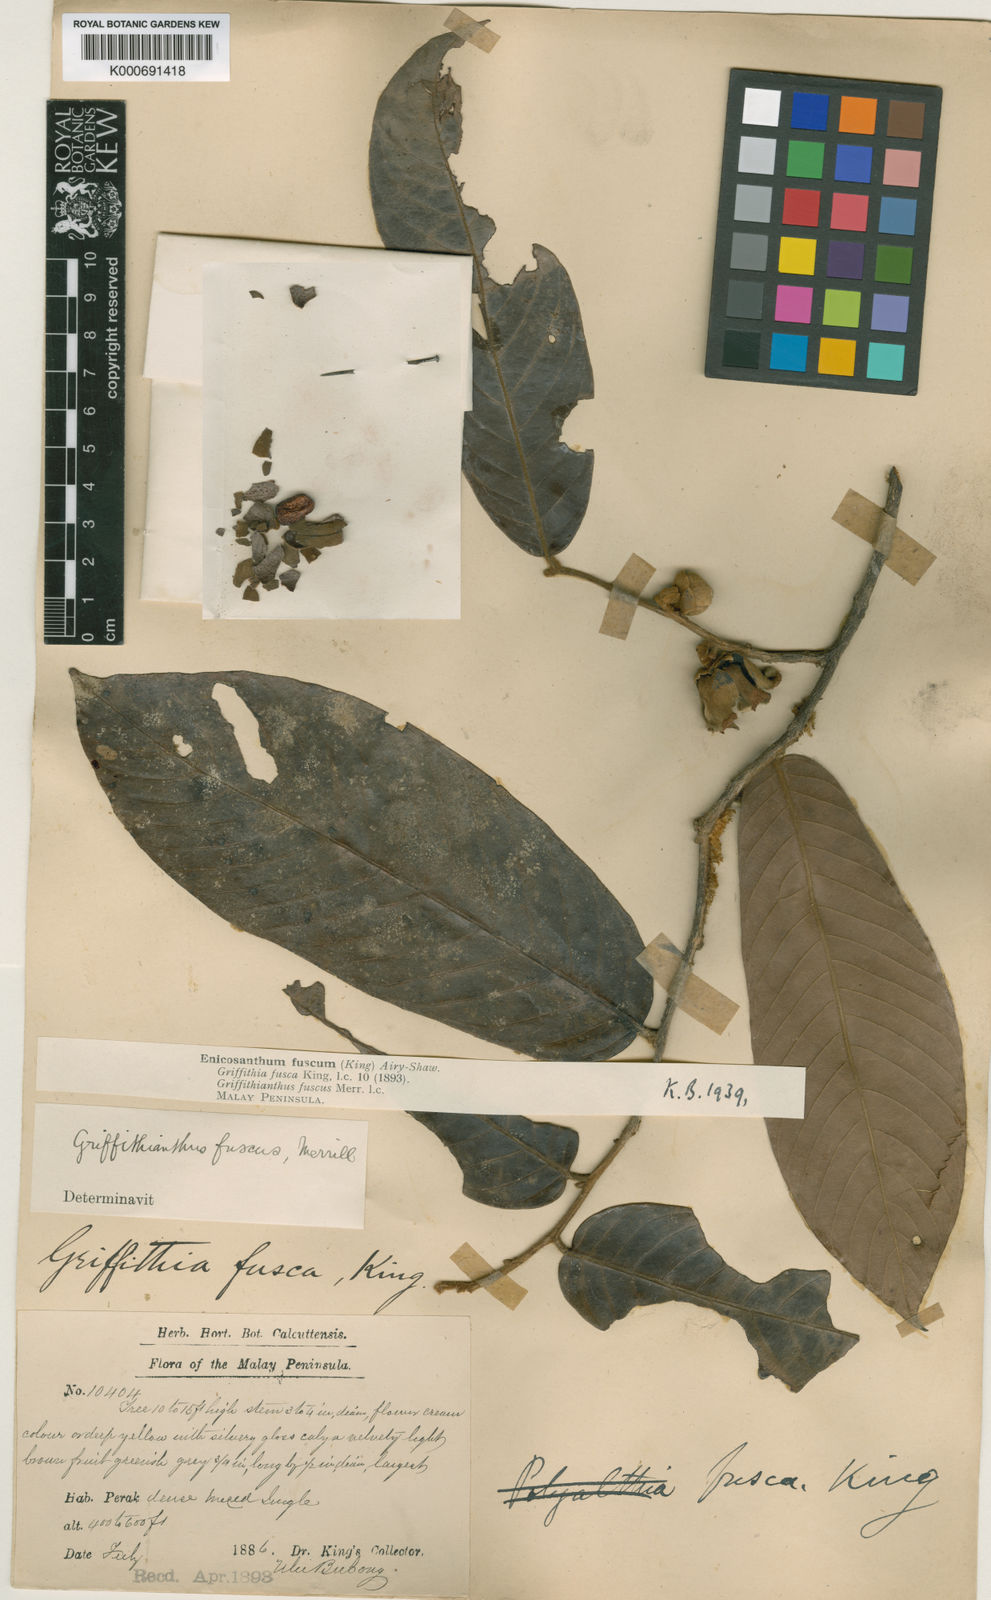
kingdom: Plantae
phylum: Tracheophyta
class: Magnoliopsida
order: Magnoliales
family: Annonaceae
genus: Enicosanthum
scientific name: Enicosanthum fuscum
